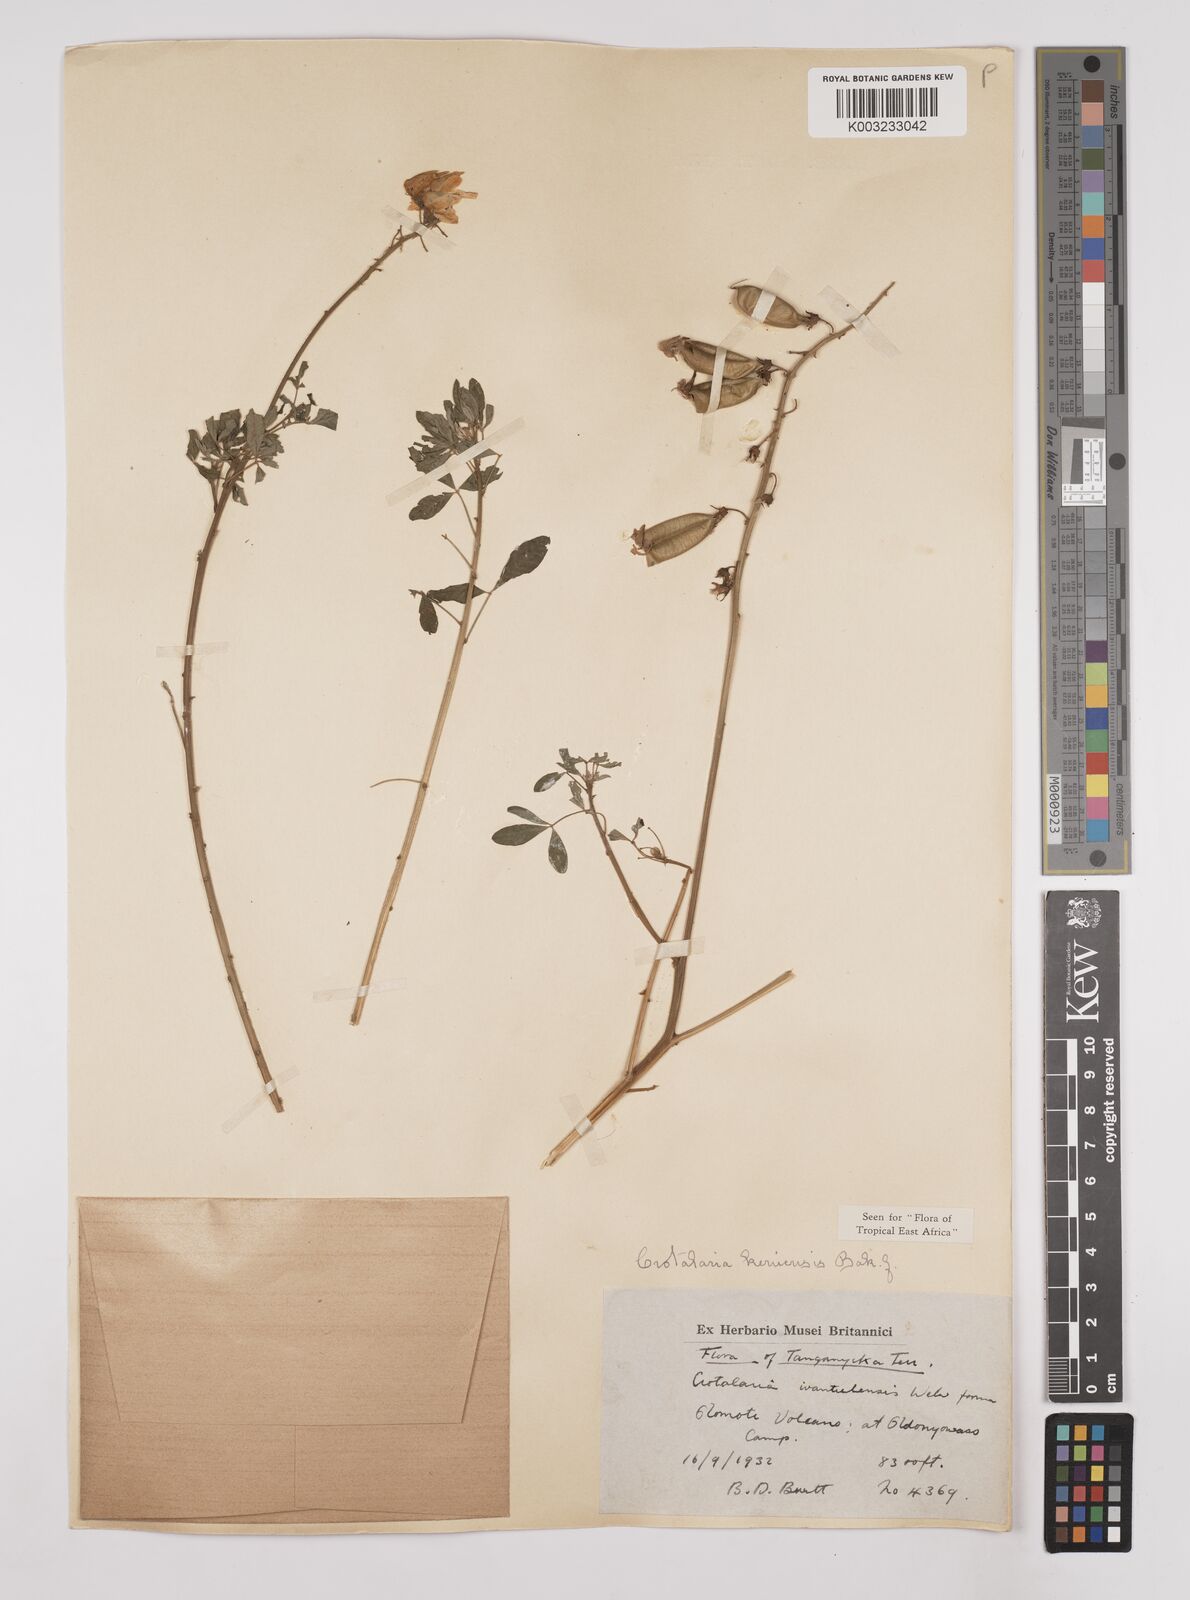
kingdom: Plantae
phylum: Tracheophyta
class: Magnoliopsida
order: Fabales
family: Fabaceae
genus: Crotalaria
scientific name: Crotalaria keniensis
